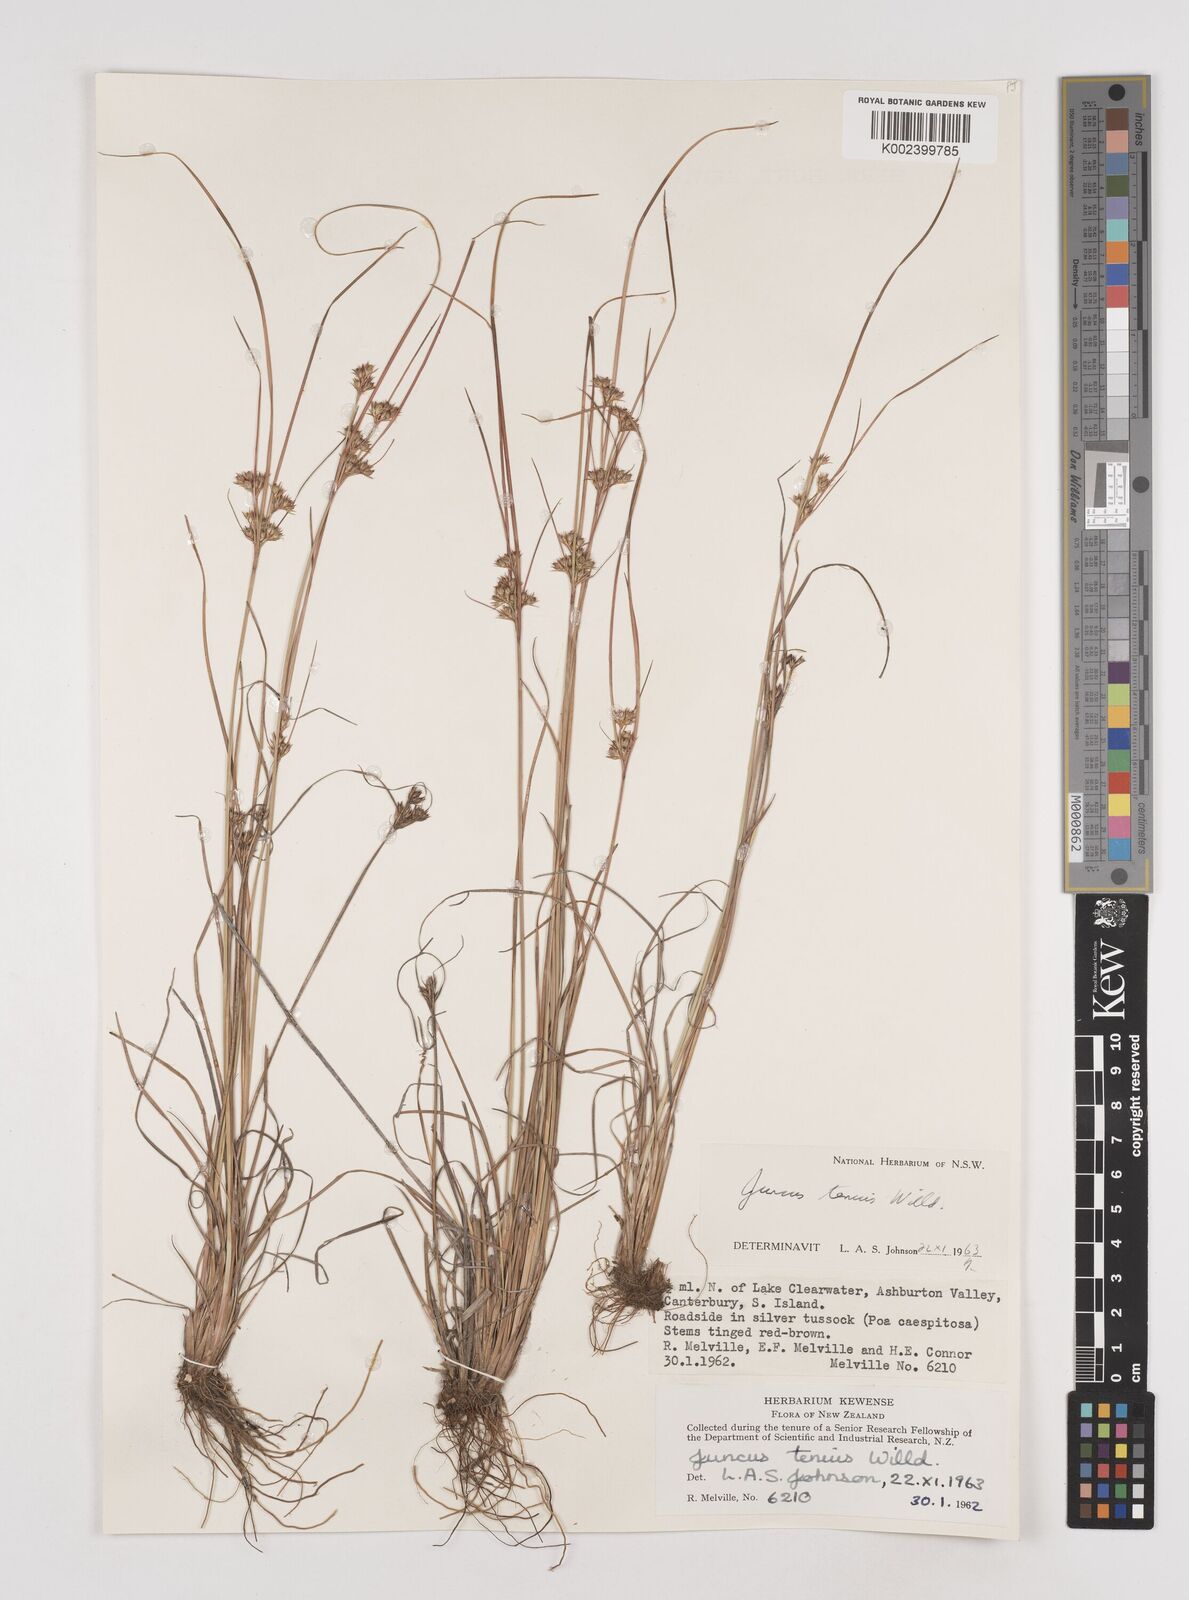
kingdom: Plantae
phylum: Tracheophyta
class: Liliopsida
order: Poales
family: Juncaceae
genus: Juncus
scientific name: Juncus tenuis
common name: Slender rush
